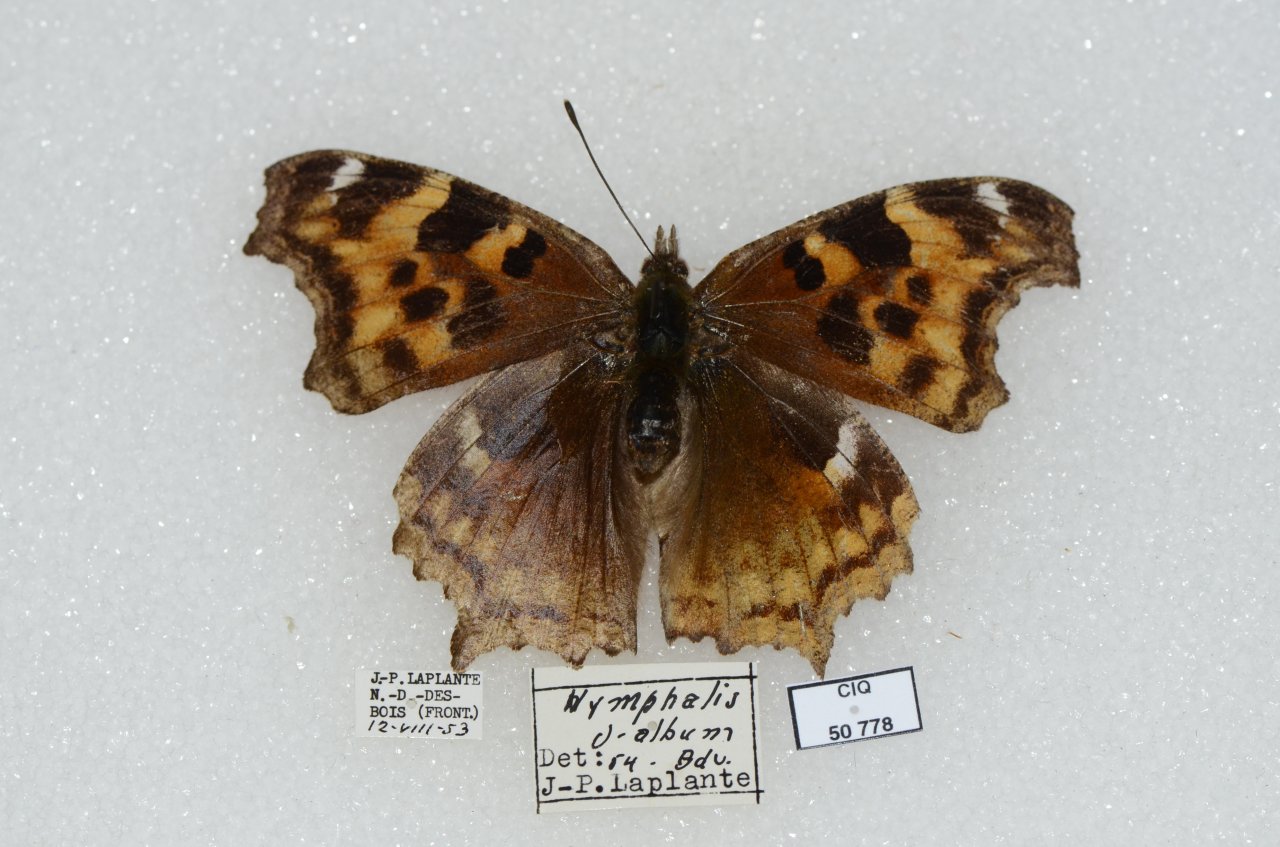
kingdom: Animalia
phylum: Arthropoda
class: Insecta
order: Lepidoptera
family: Nymphalidae
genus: Polygonia
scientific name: Polygonia vaualbum
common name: Compton Tortoiseshell
